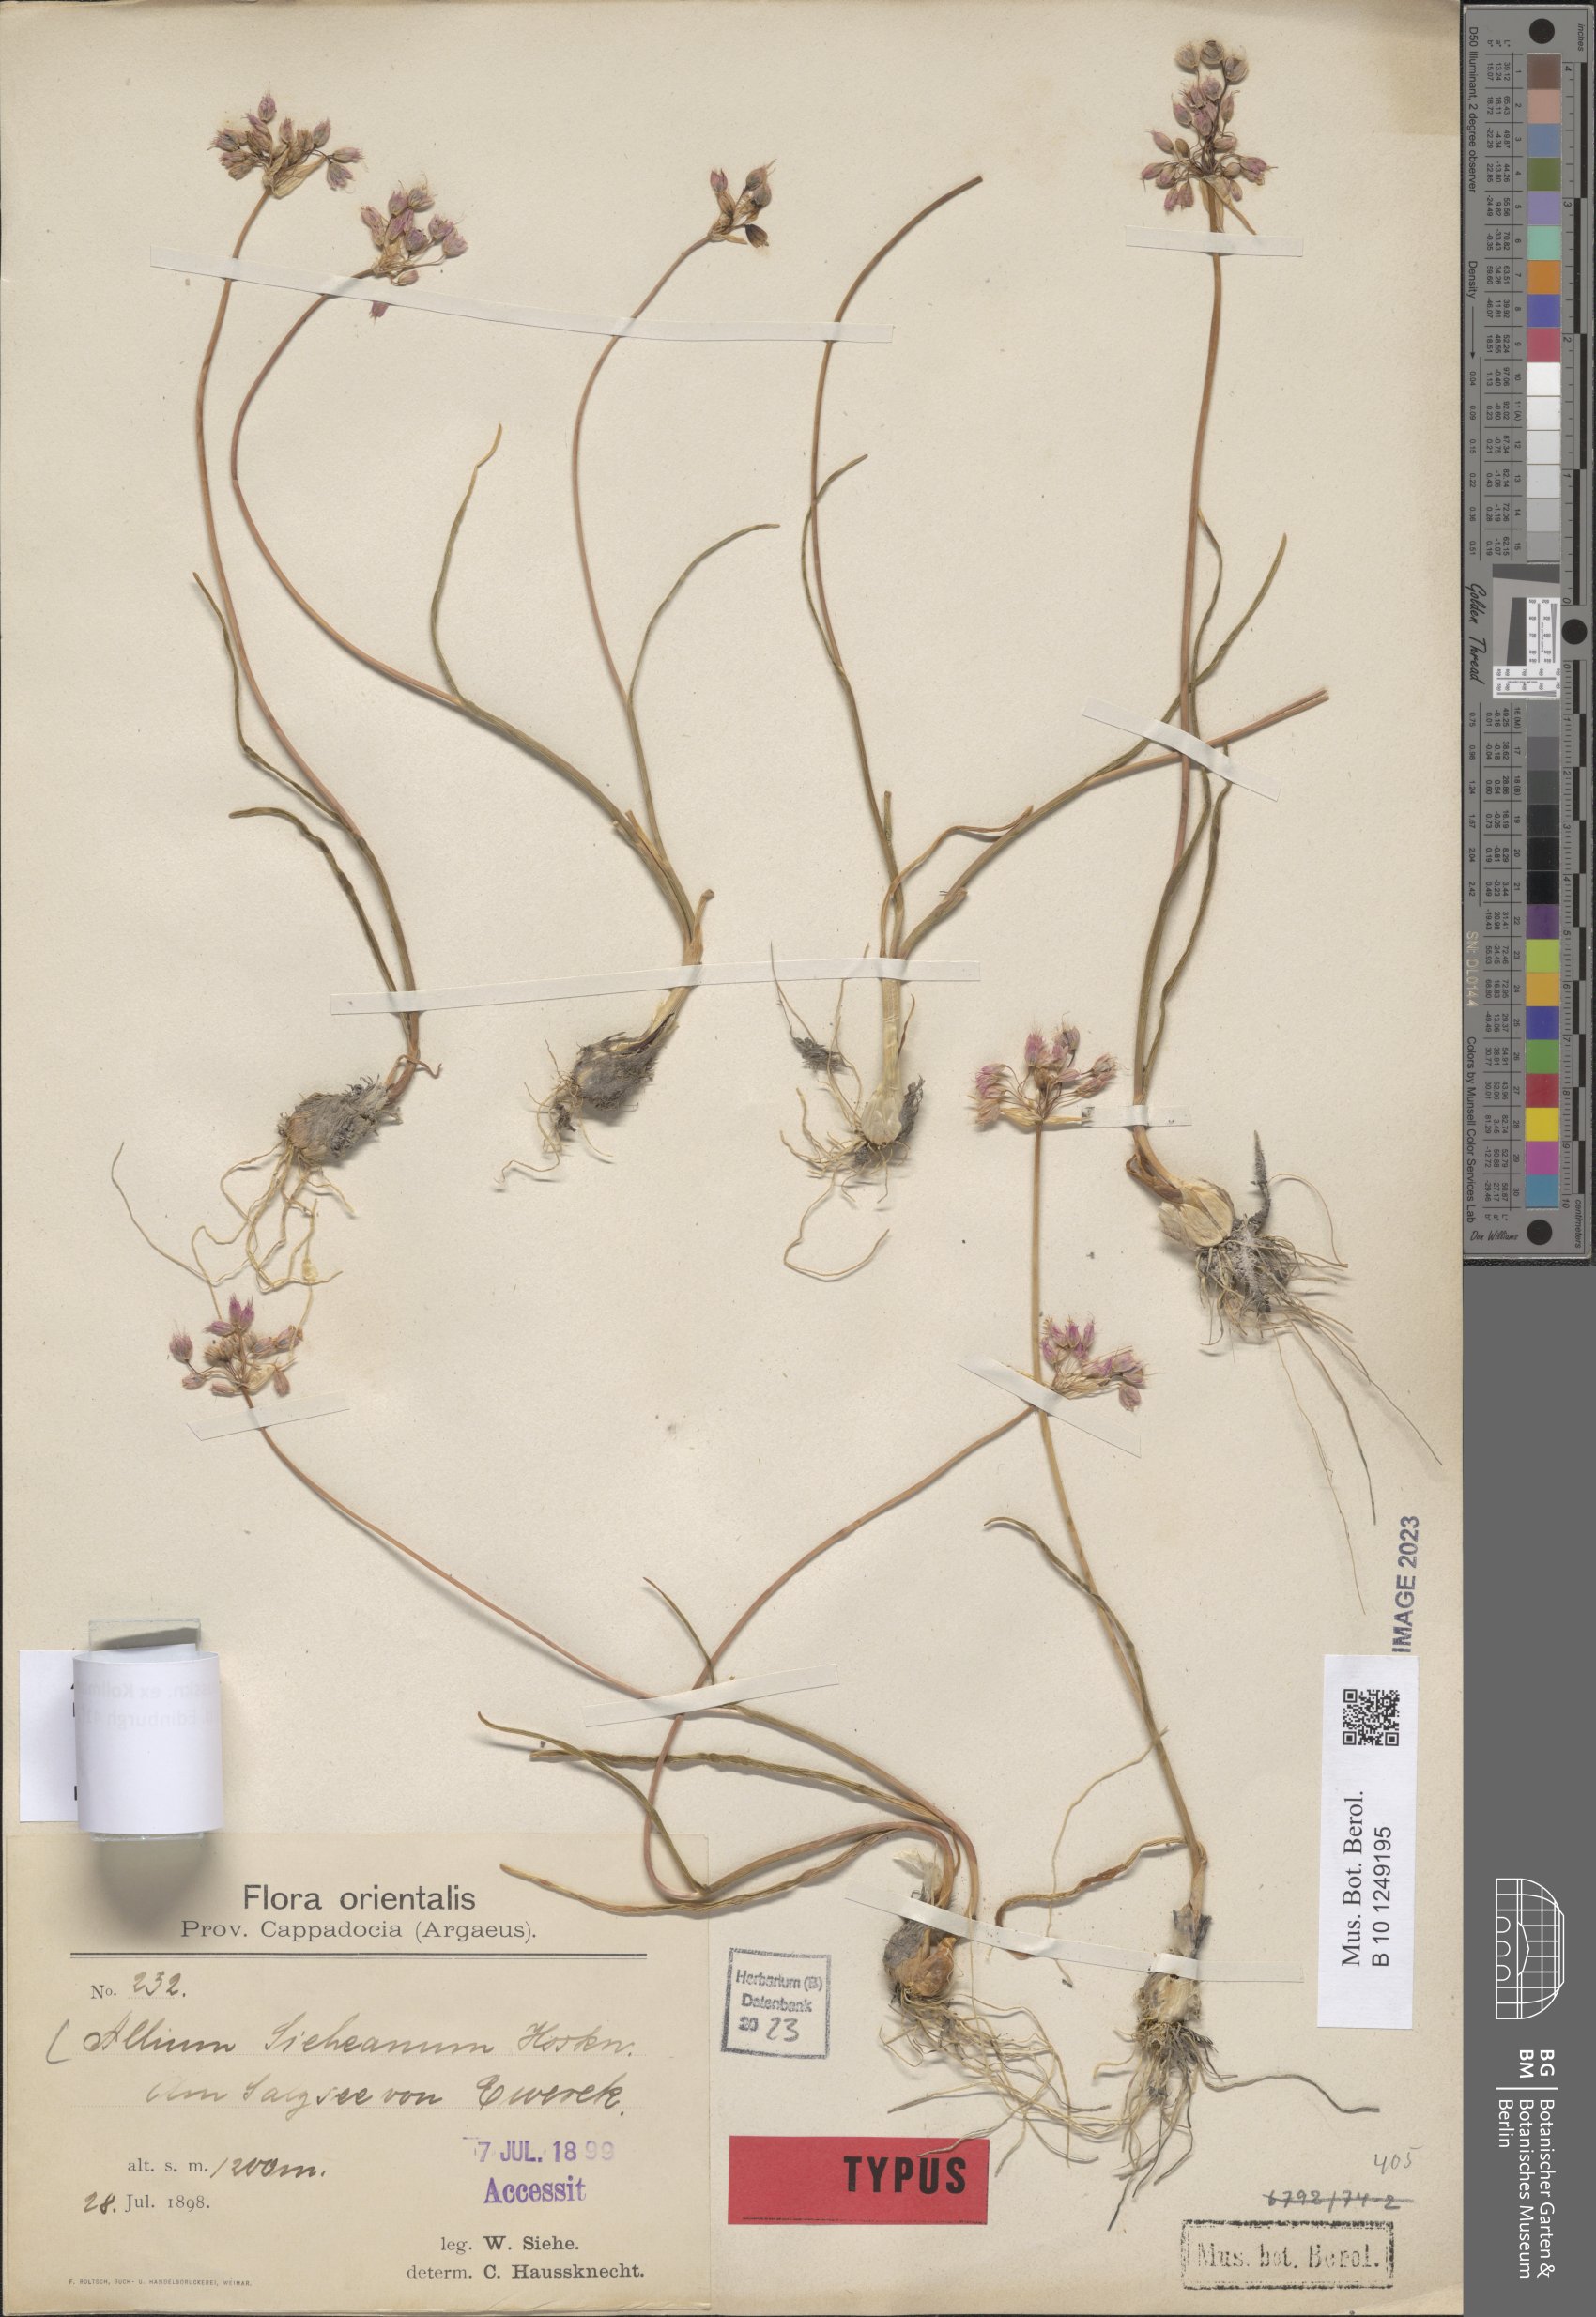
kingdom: Plantae
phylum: Tracheophyta
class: Liliopsida
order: Asparagales
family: Amaryllidaceae
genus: Allium
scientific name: Allium sieheanum
